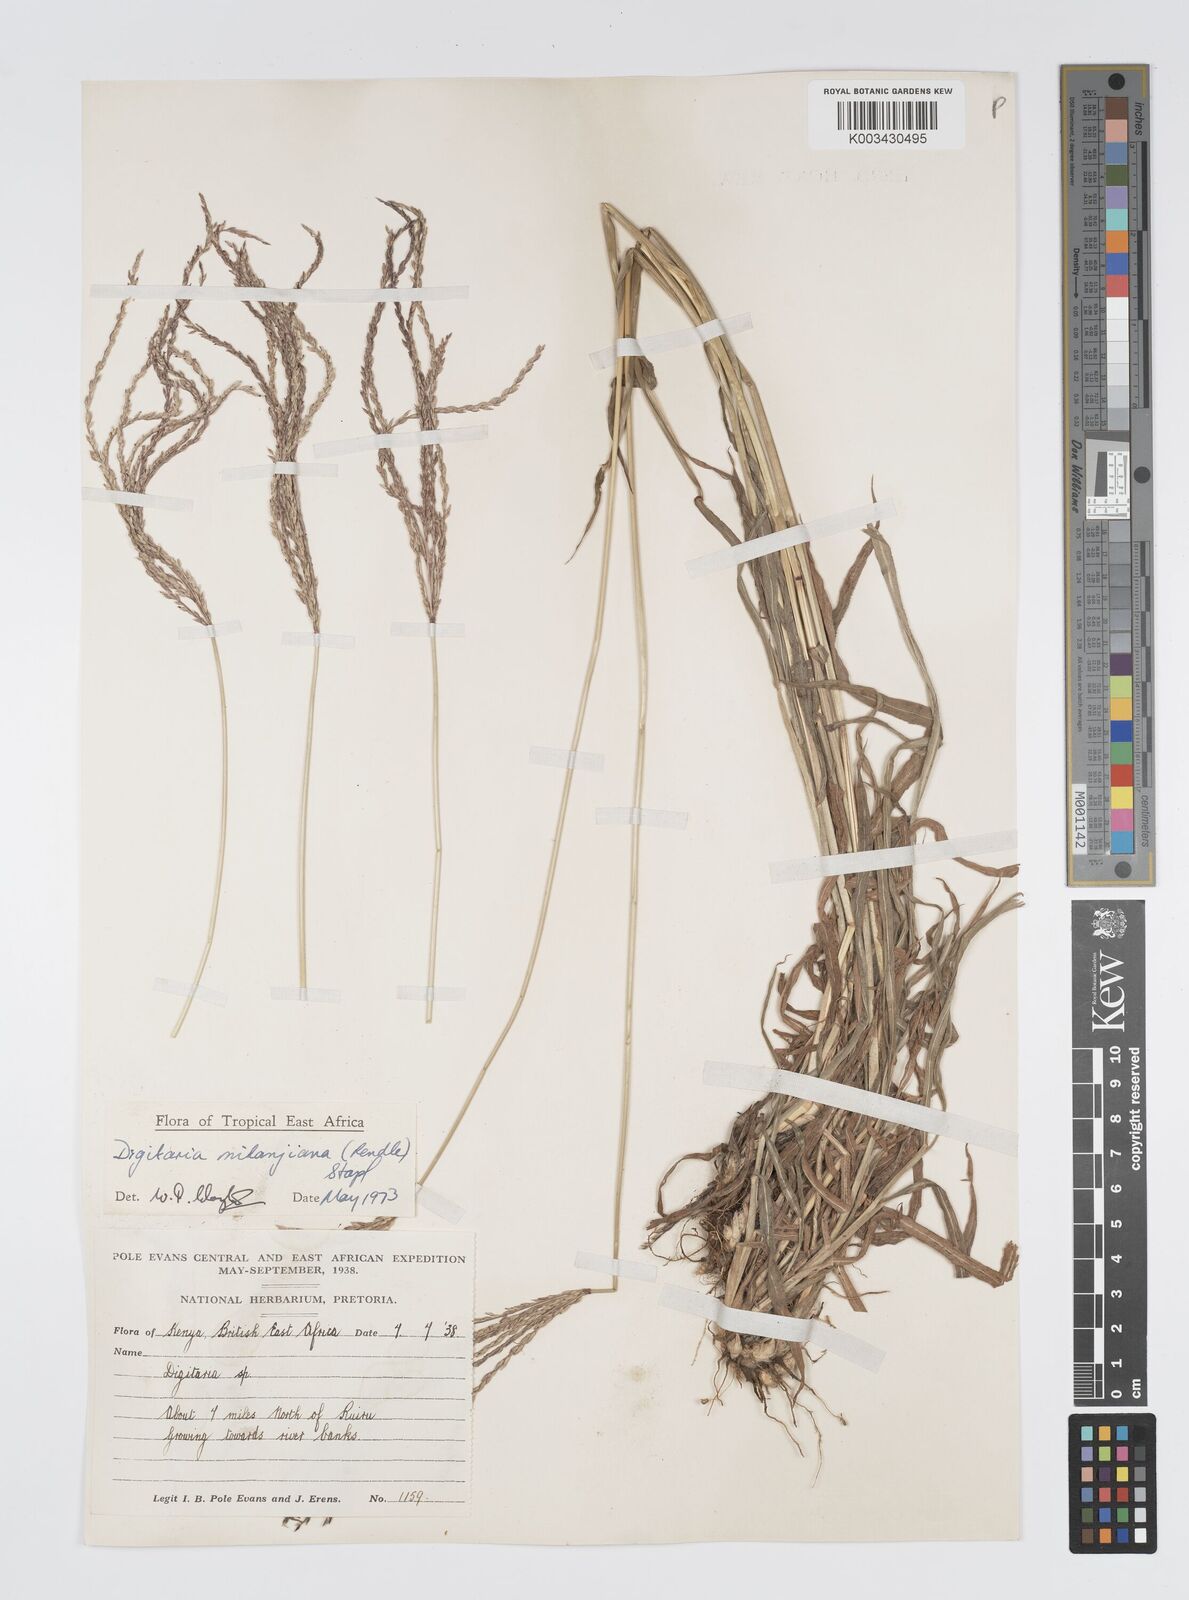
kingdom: Plantae
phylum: Tracheophyta
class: Liliopsida
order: Poales
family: Poaceae
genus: Digitaria
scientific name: Digitaria milanjiana
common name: Madagascar crabgrass
